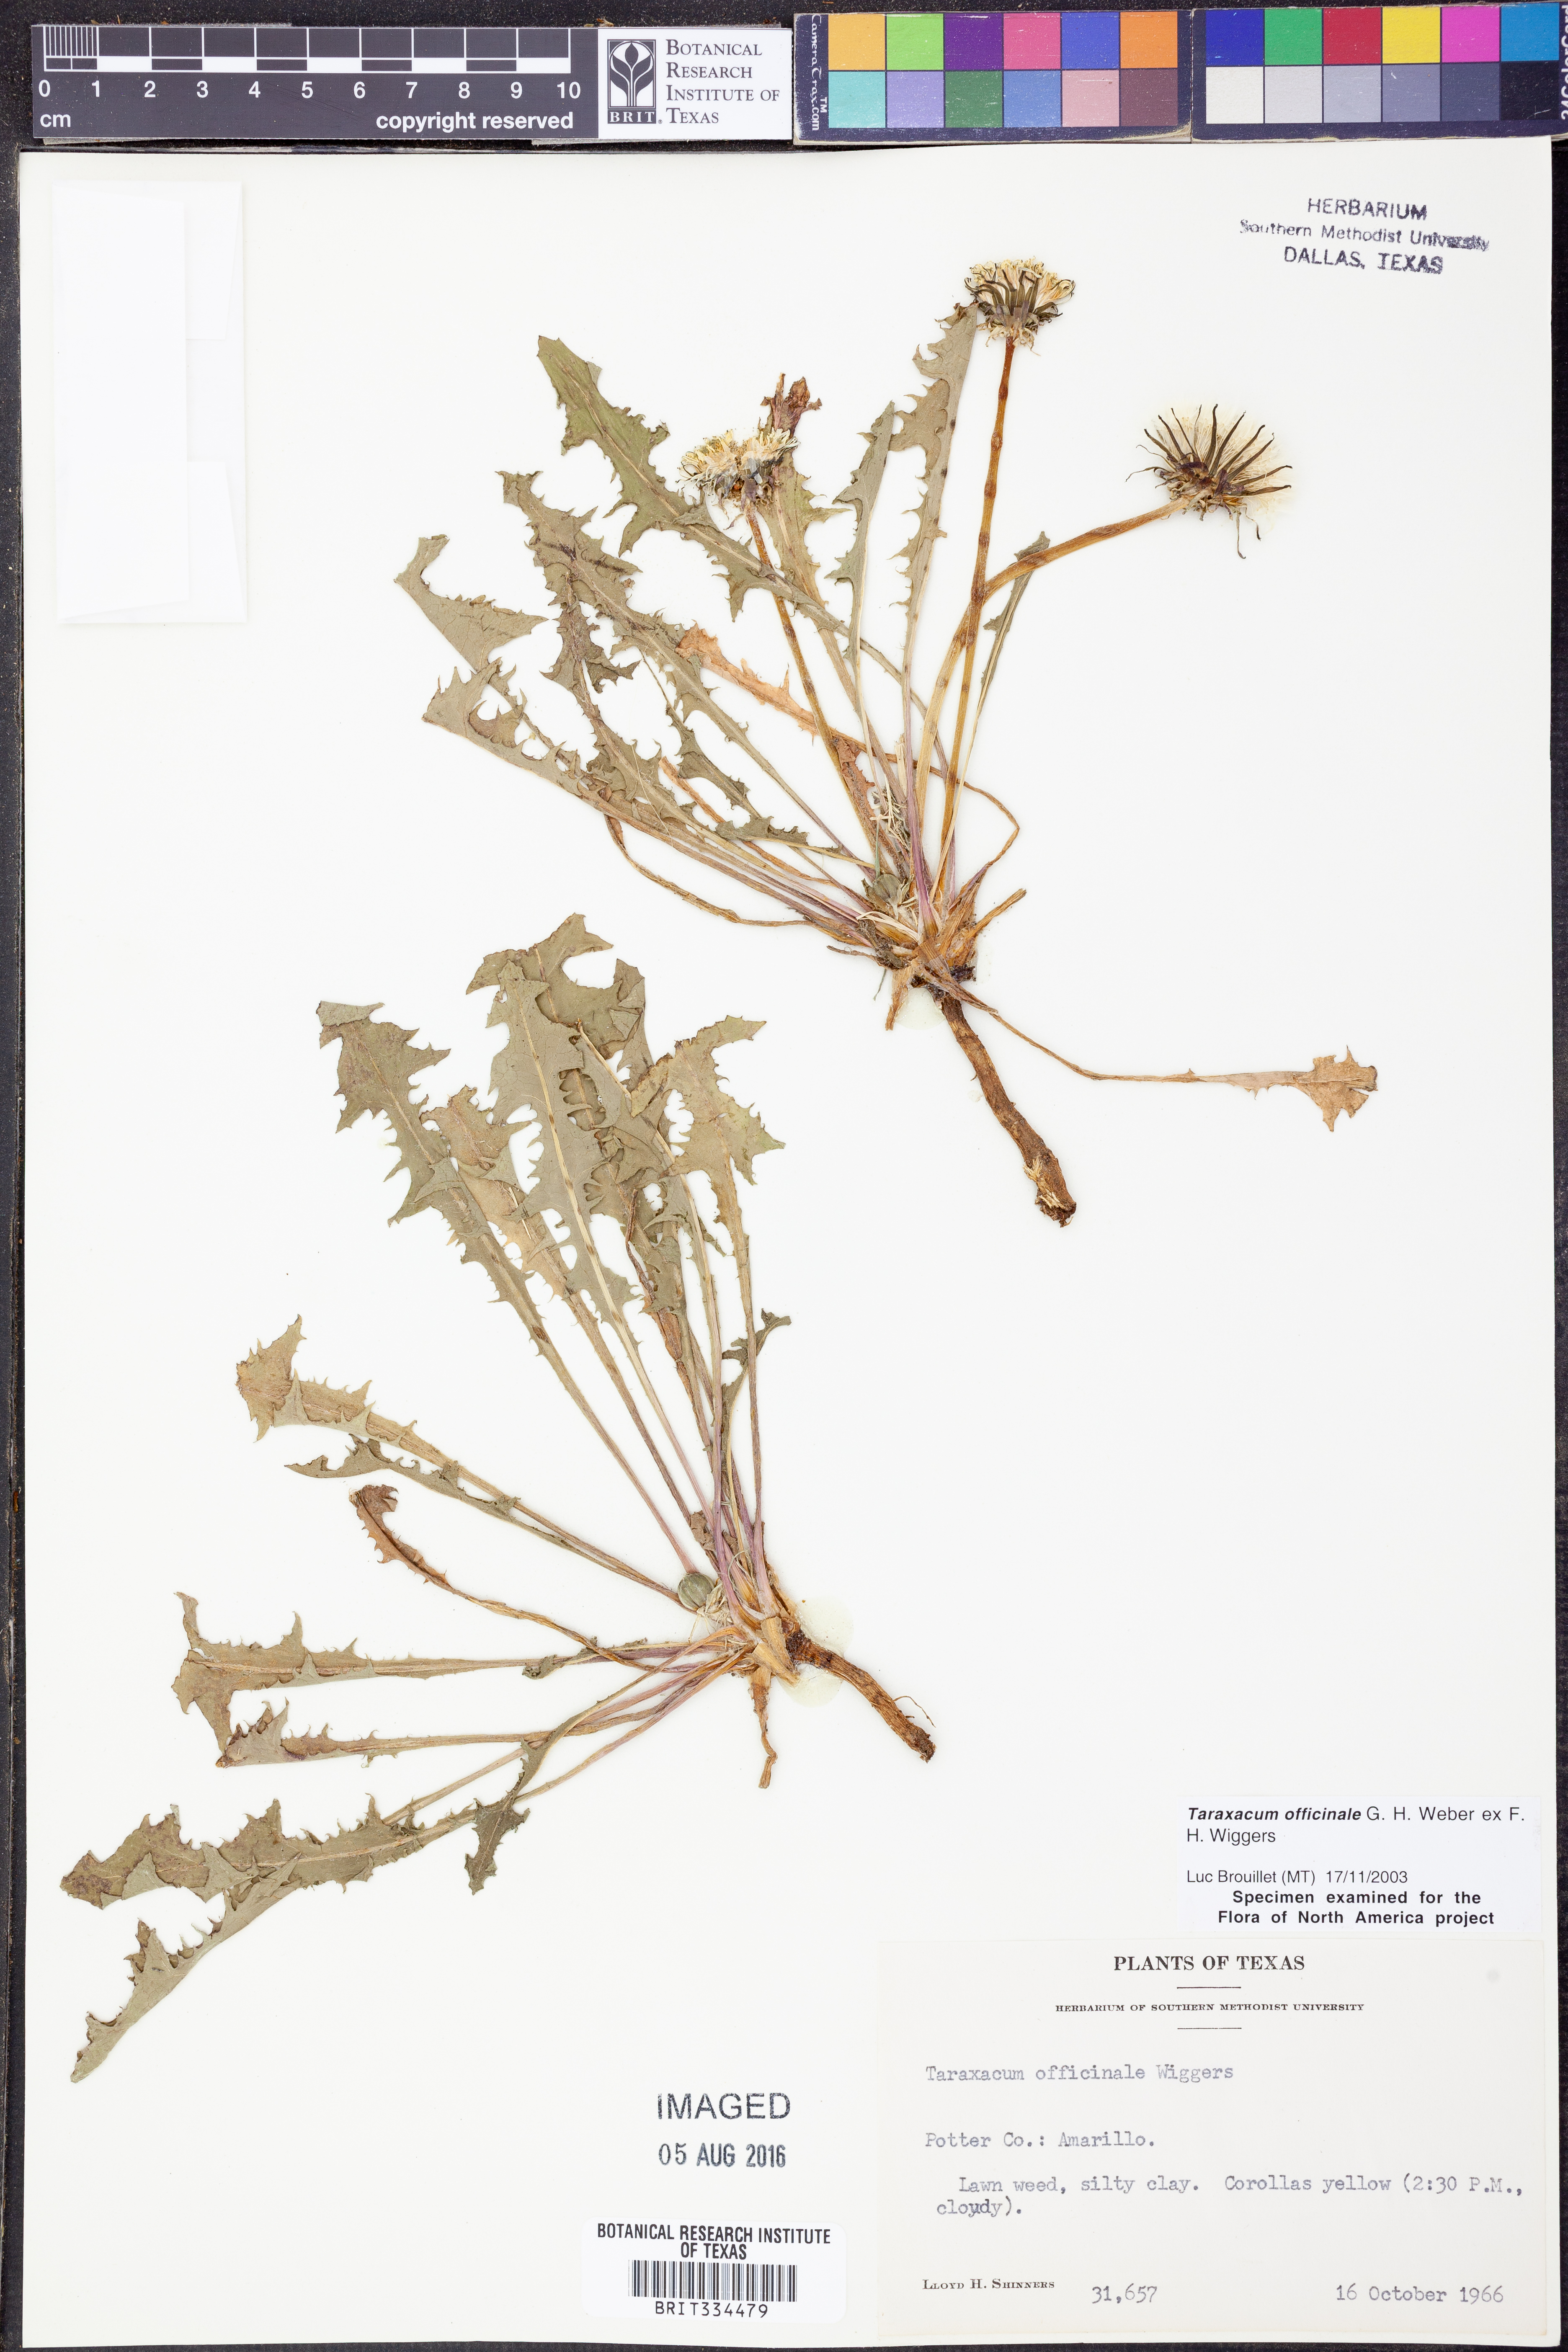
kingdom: Plantae
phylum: Tracheophyta
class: Magnoliopsida
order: Asterales
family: Asteraceae
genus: Taraxacum
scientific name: Taraxacum officinale
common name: Common dandelion
